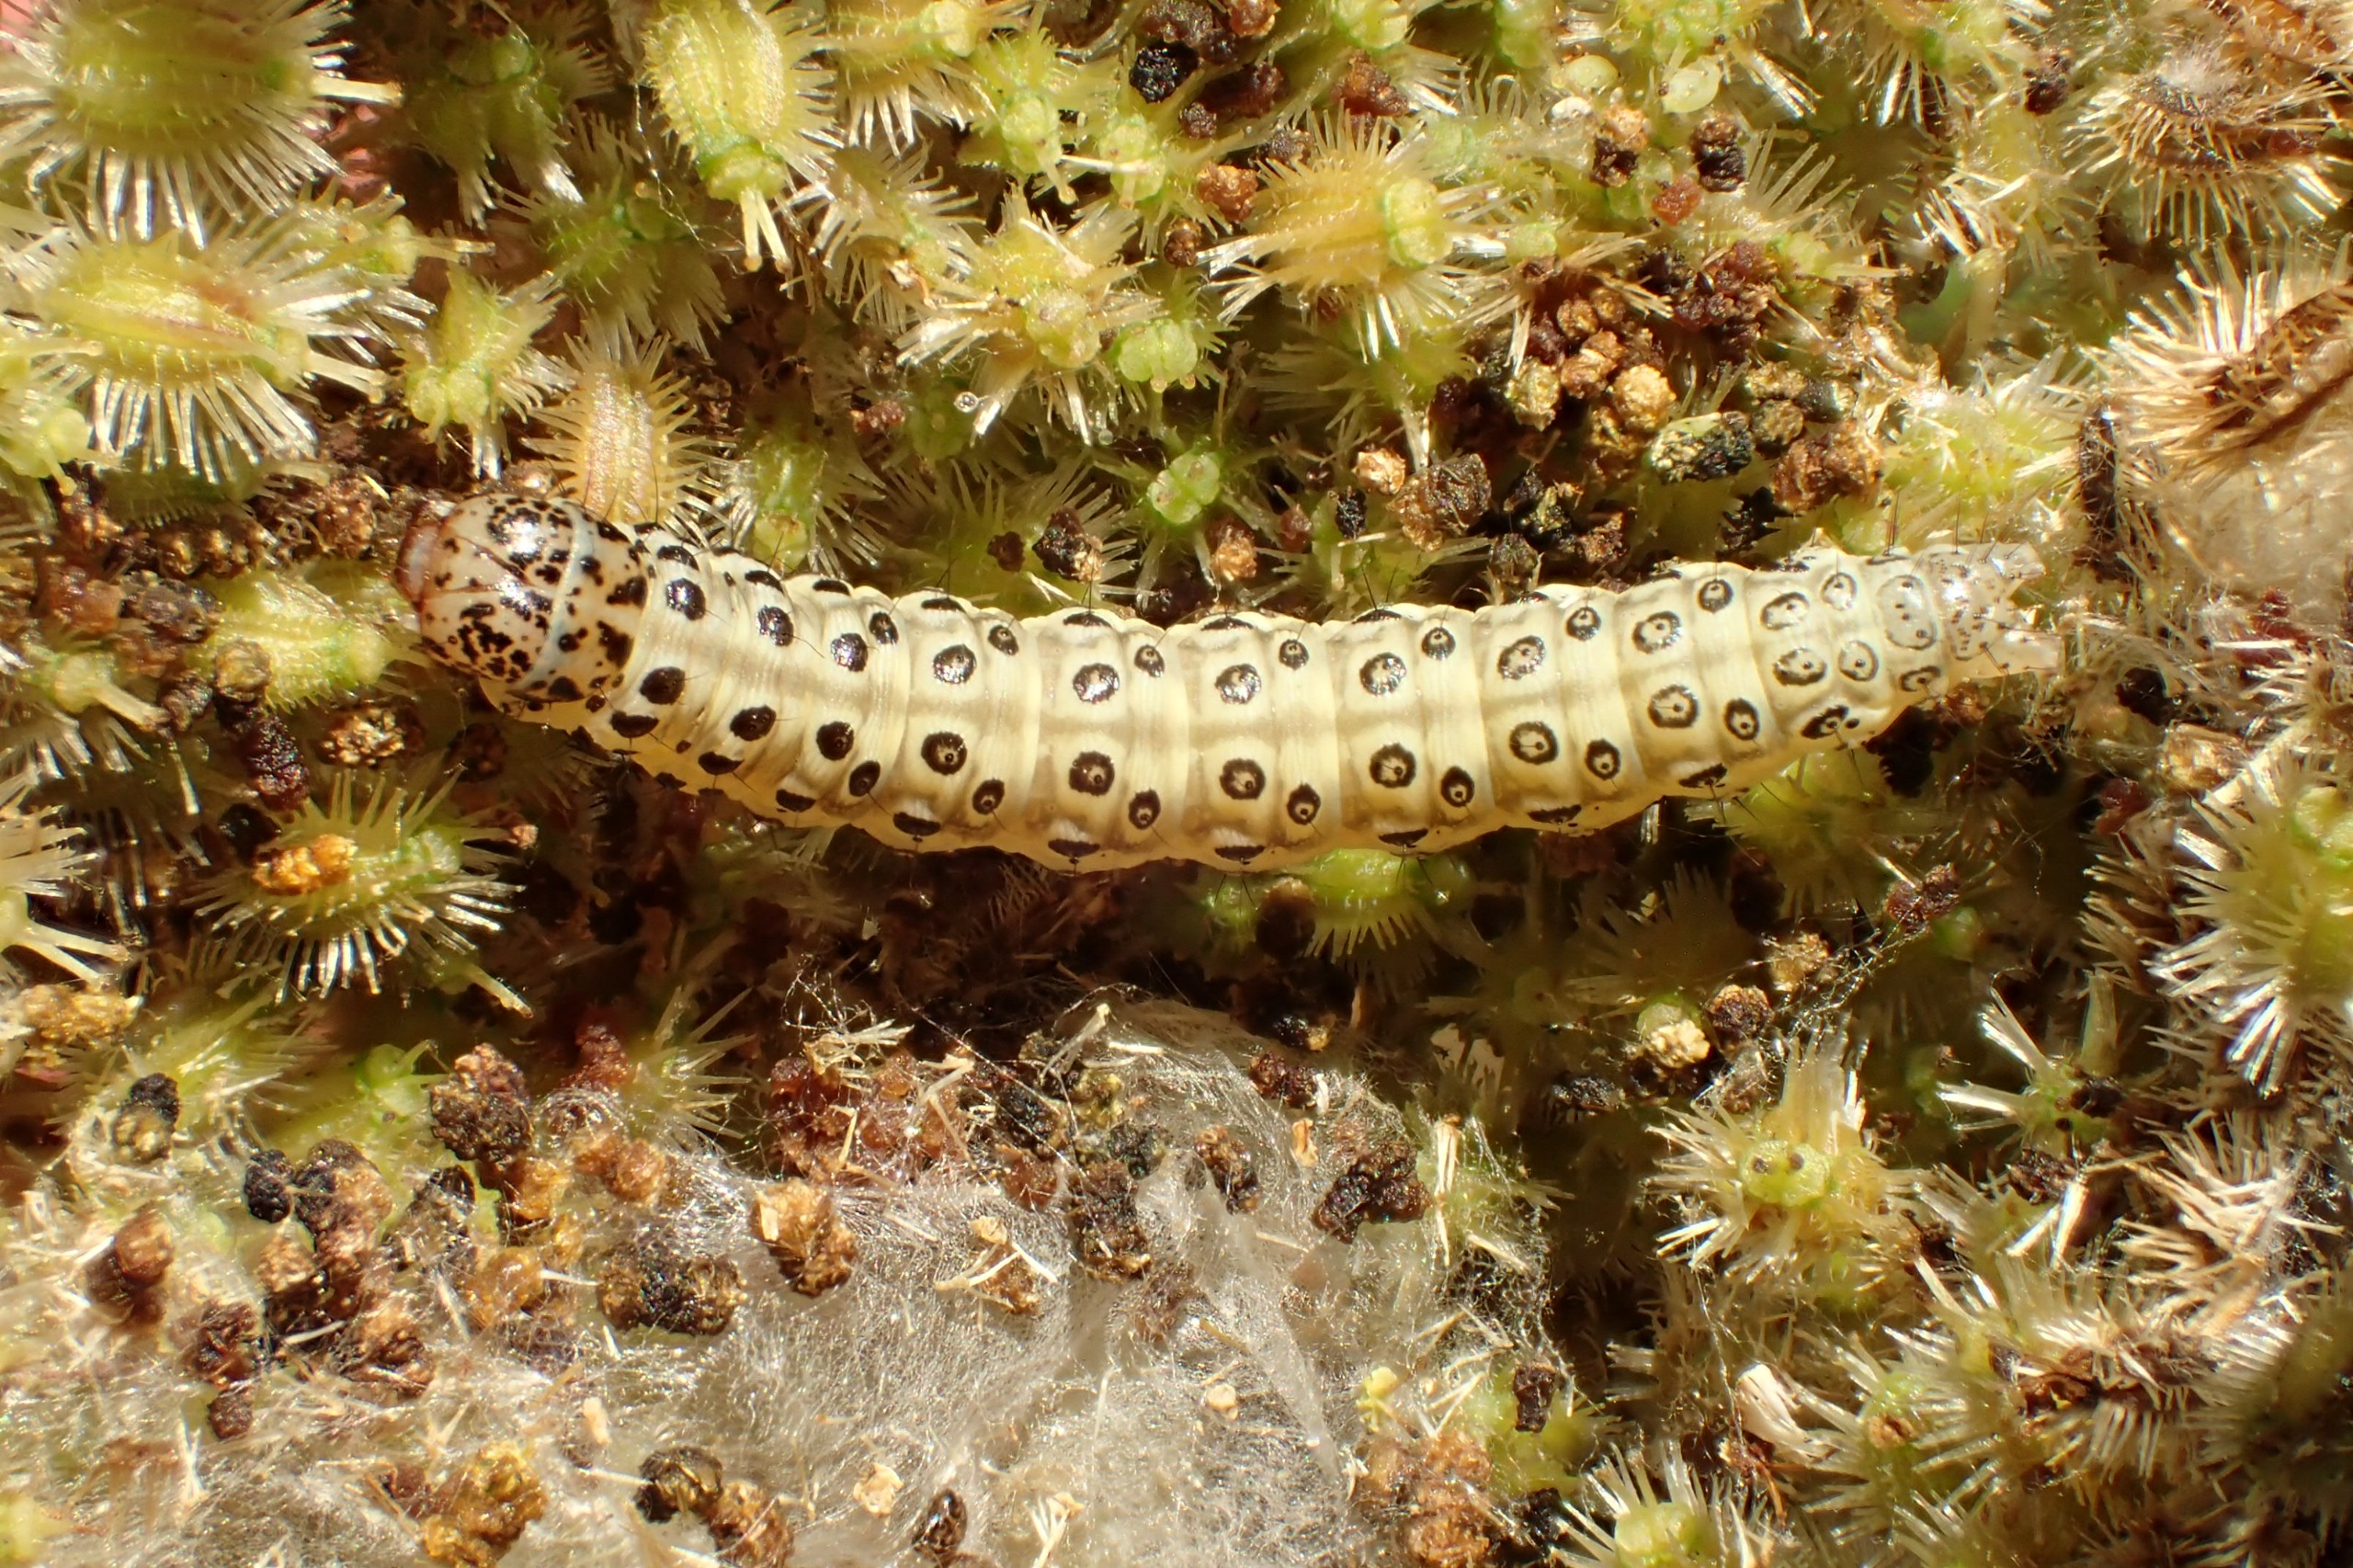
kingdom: Animalia
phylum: Arthropoda
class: Insecta
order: Lepidoptera
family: Crambidae
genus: Sitochroa
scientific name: Sitochroa palealis
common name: Gulerodshalvmøl
